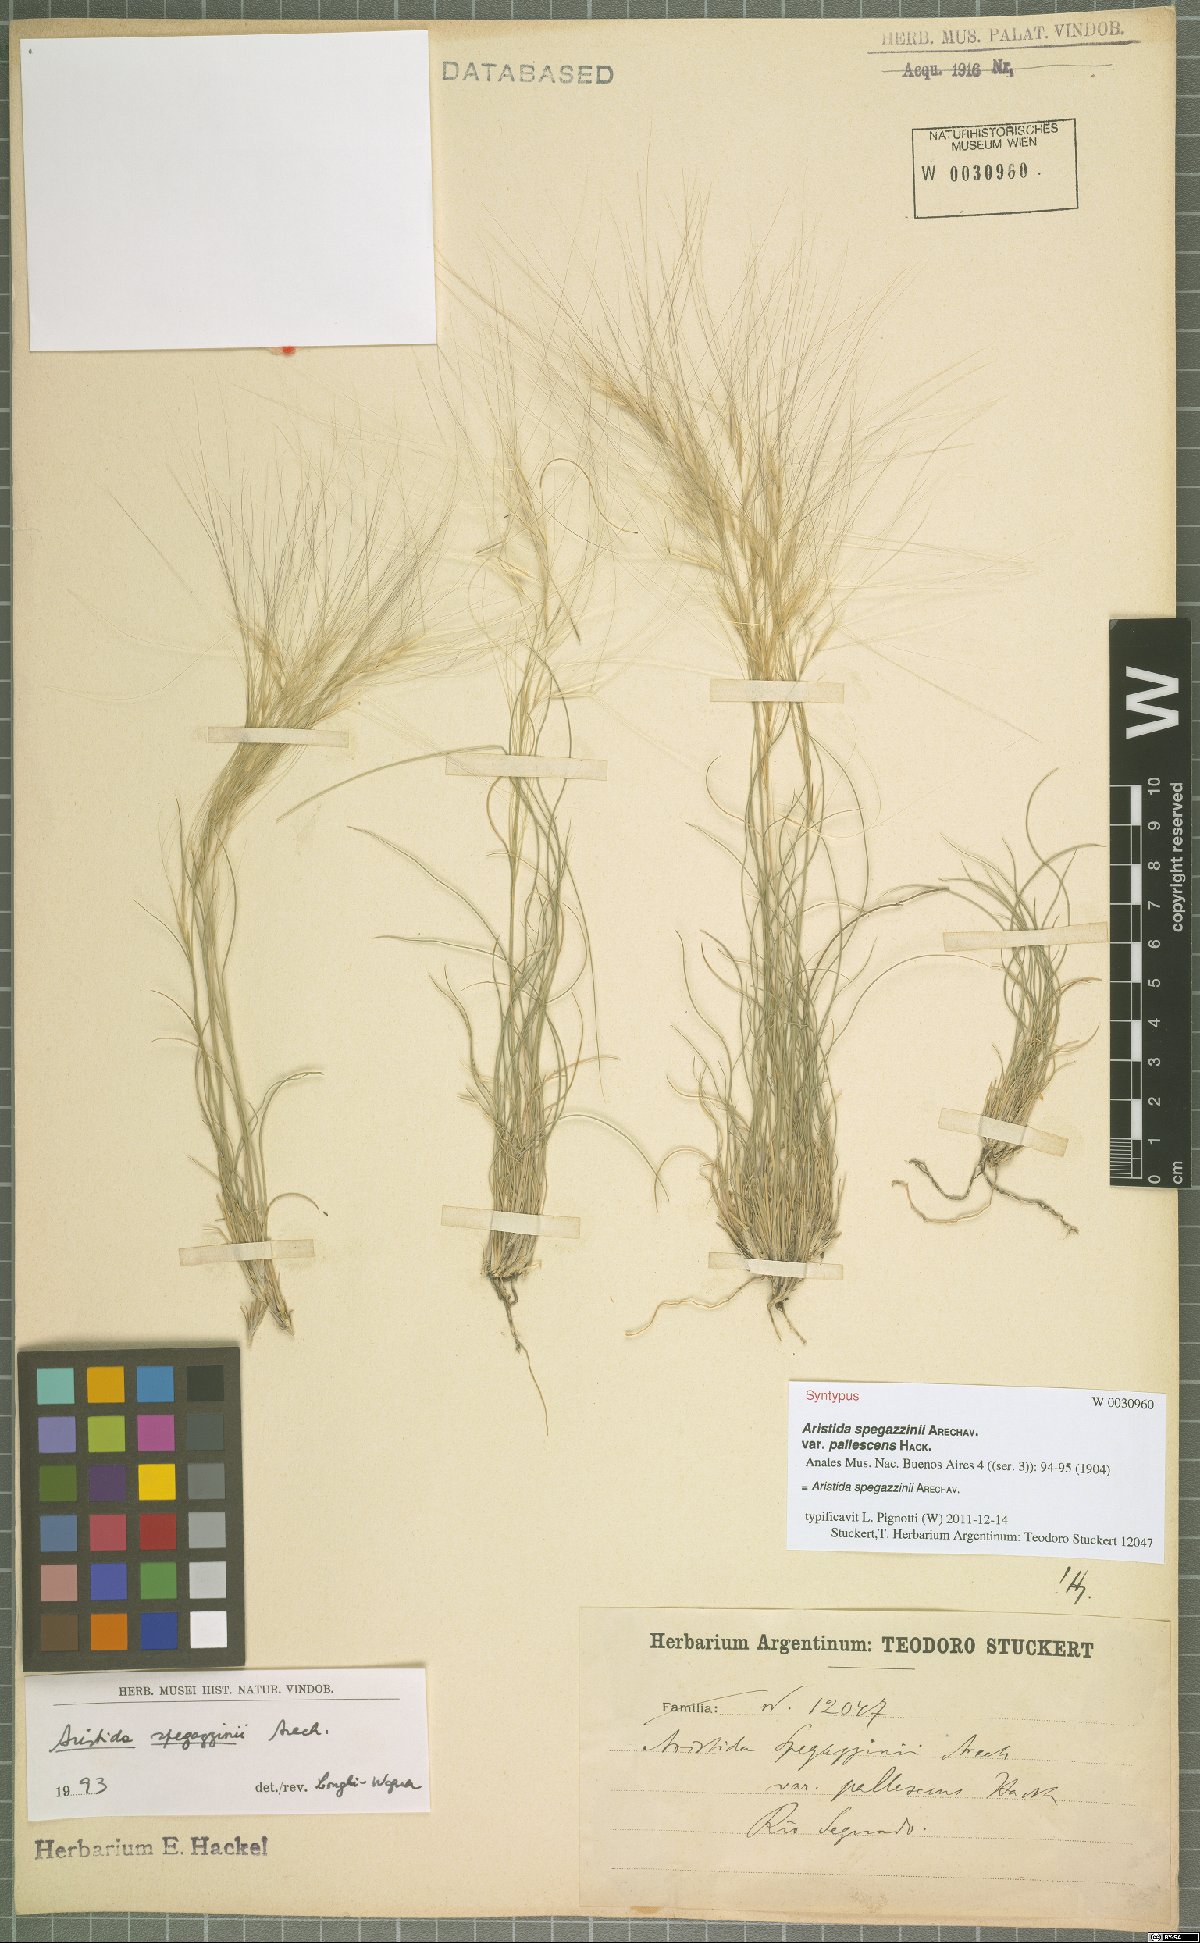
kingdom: Plantae
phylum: Tracheophyta
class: Liliopsida
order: Poales
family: Poaceae
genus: Aristida
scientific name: Aristida spegazzinii
